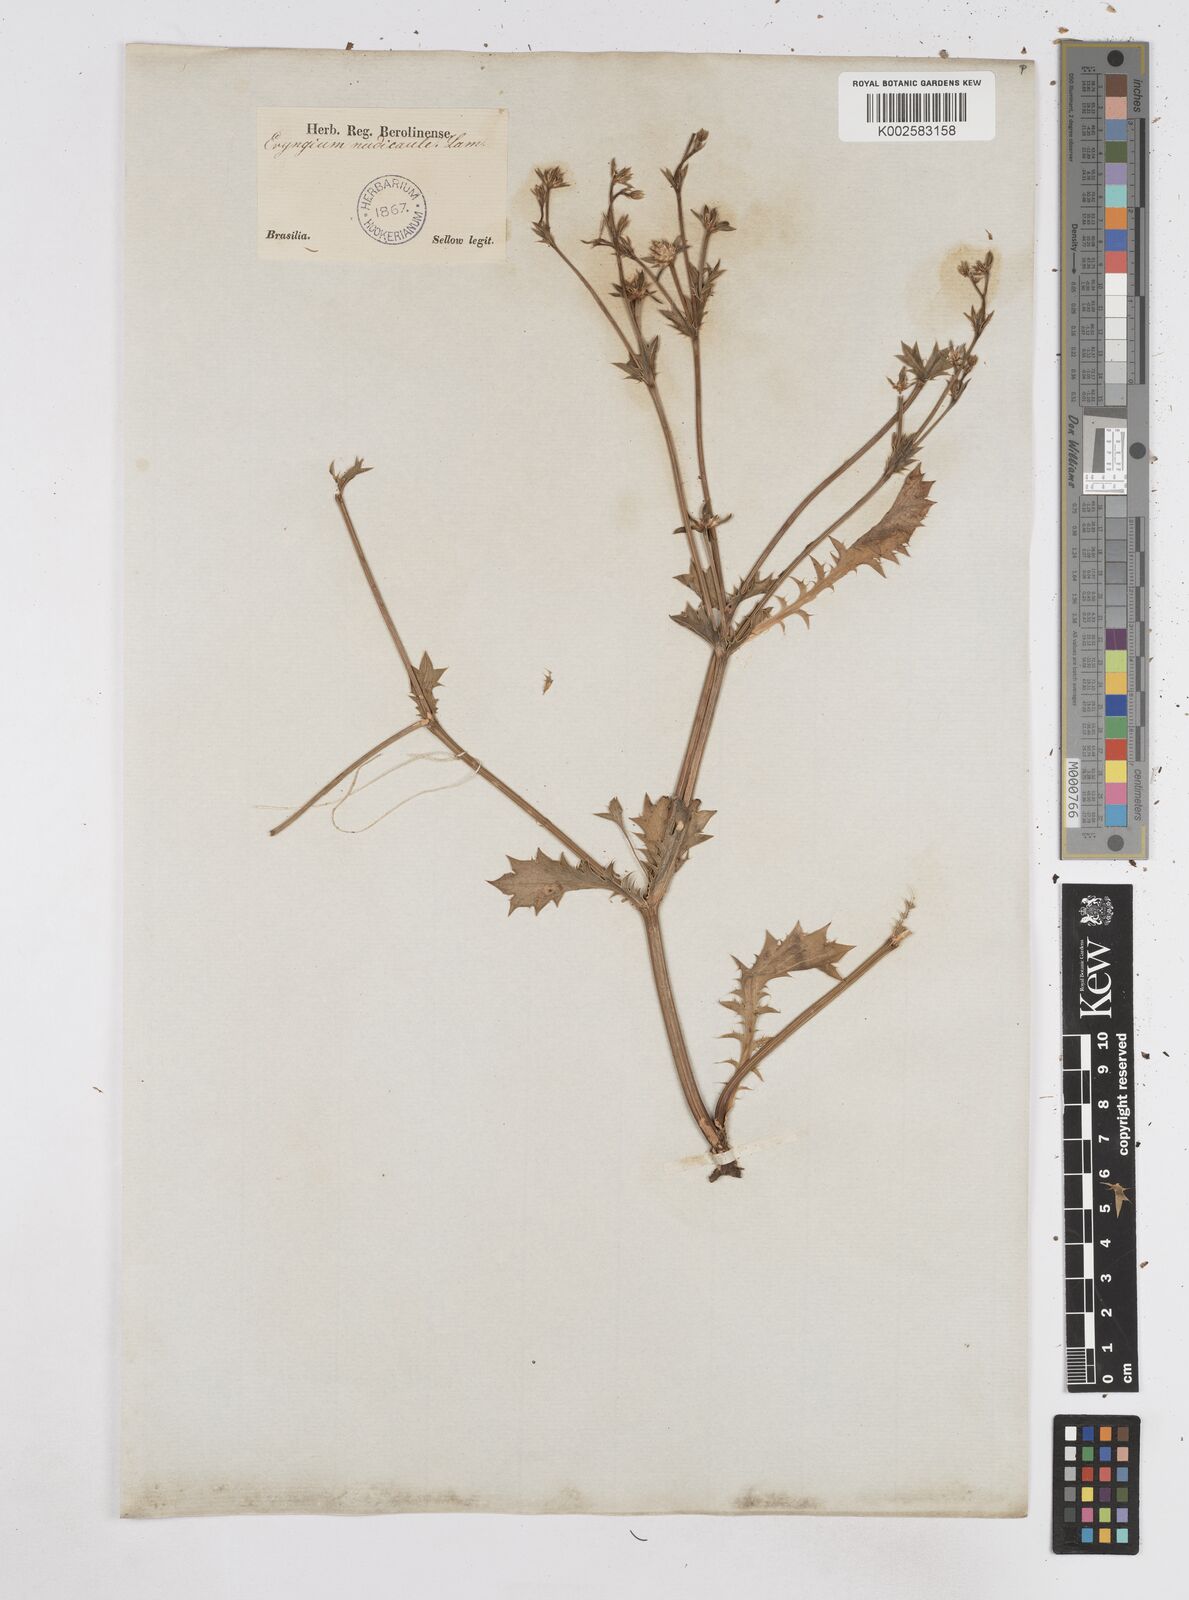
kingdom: Plantae
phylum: Tracheophyta
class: Magnoliopsida
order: Apiales
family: Apiaceae
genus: Eryngium
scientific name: Eryngium nudicaule
